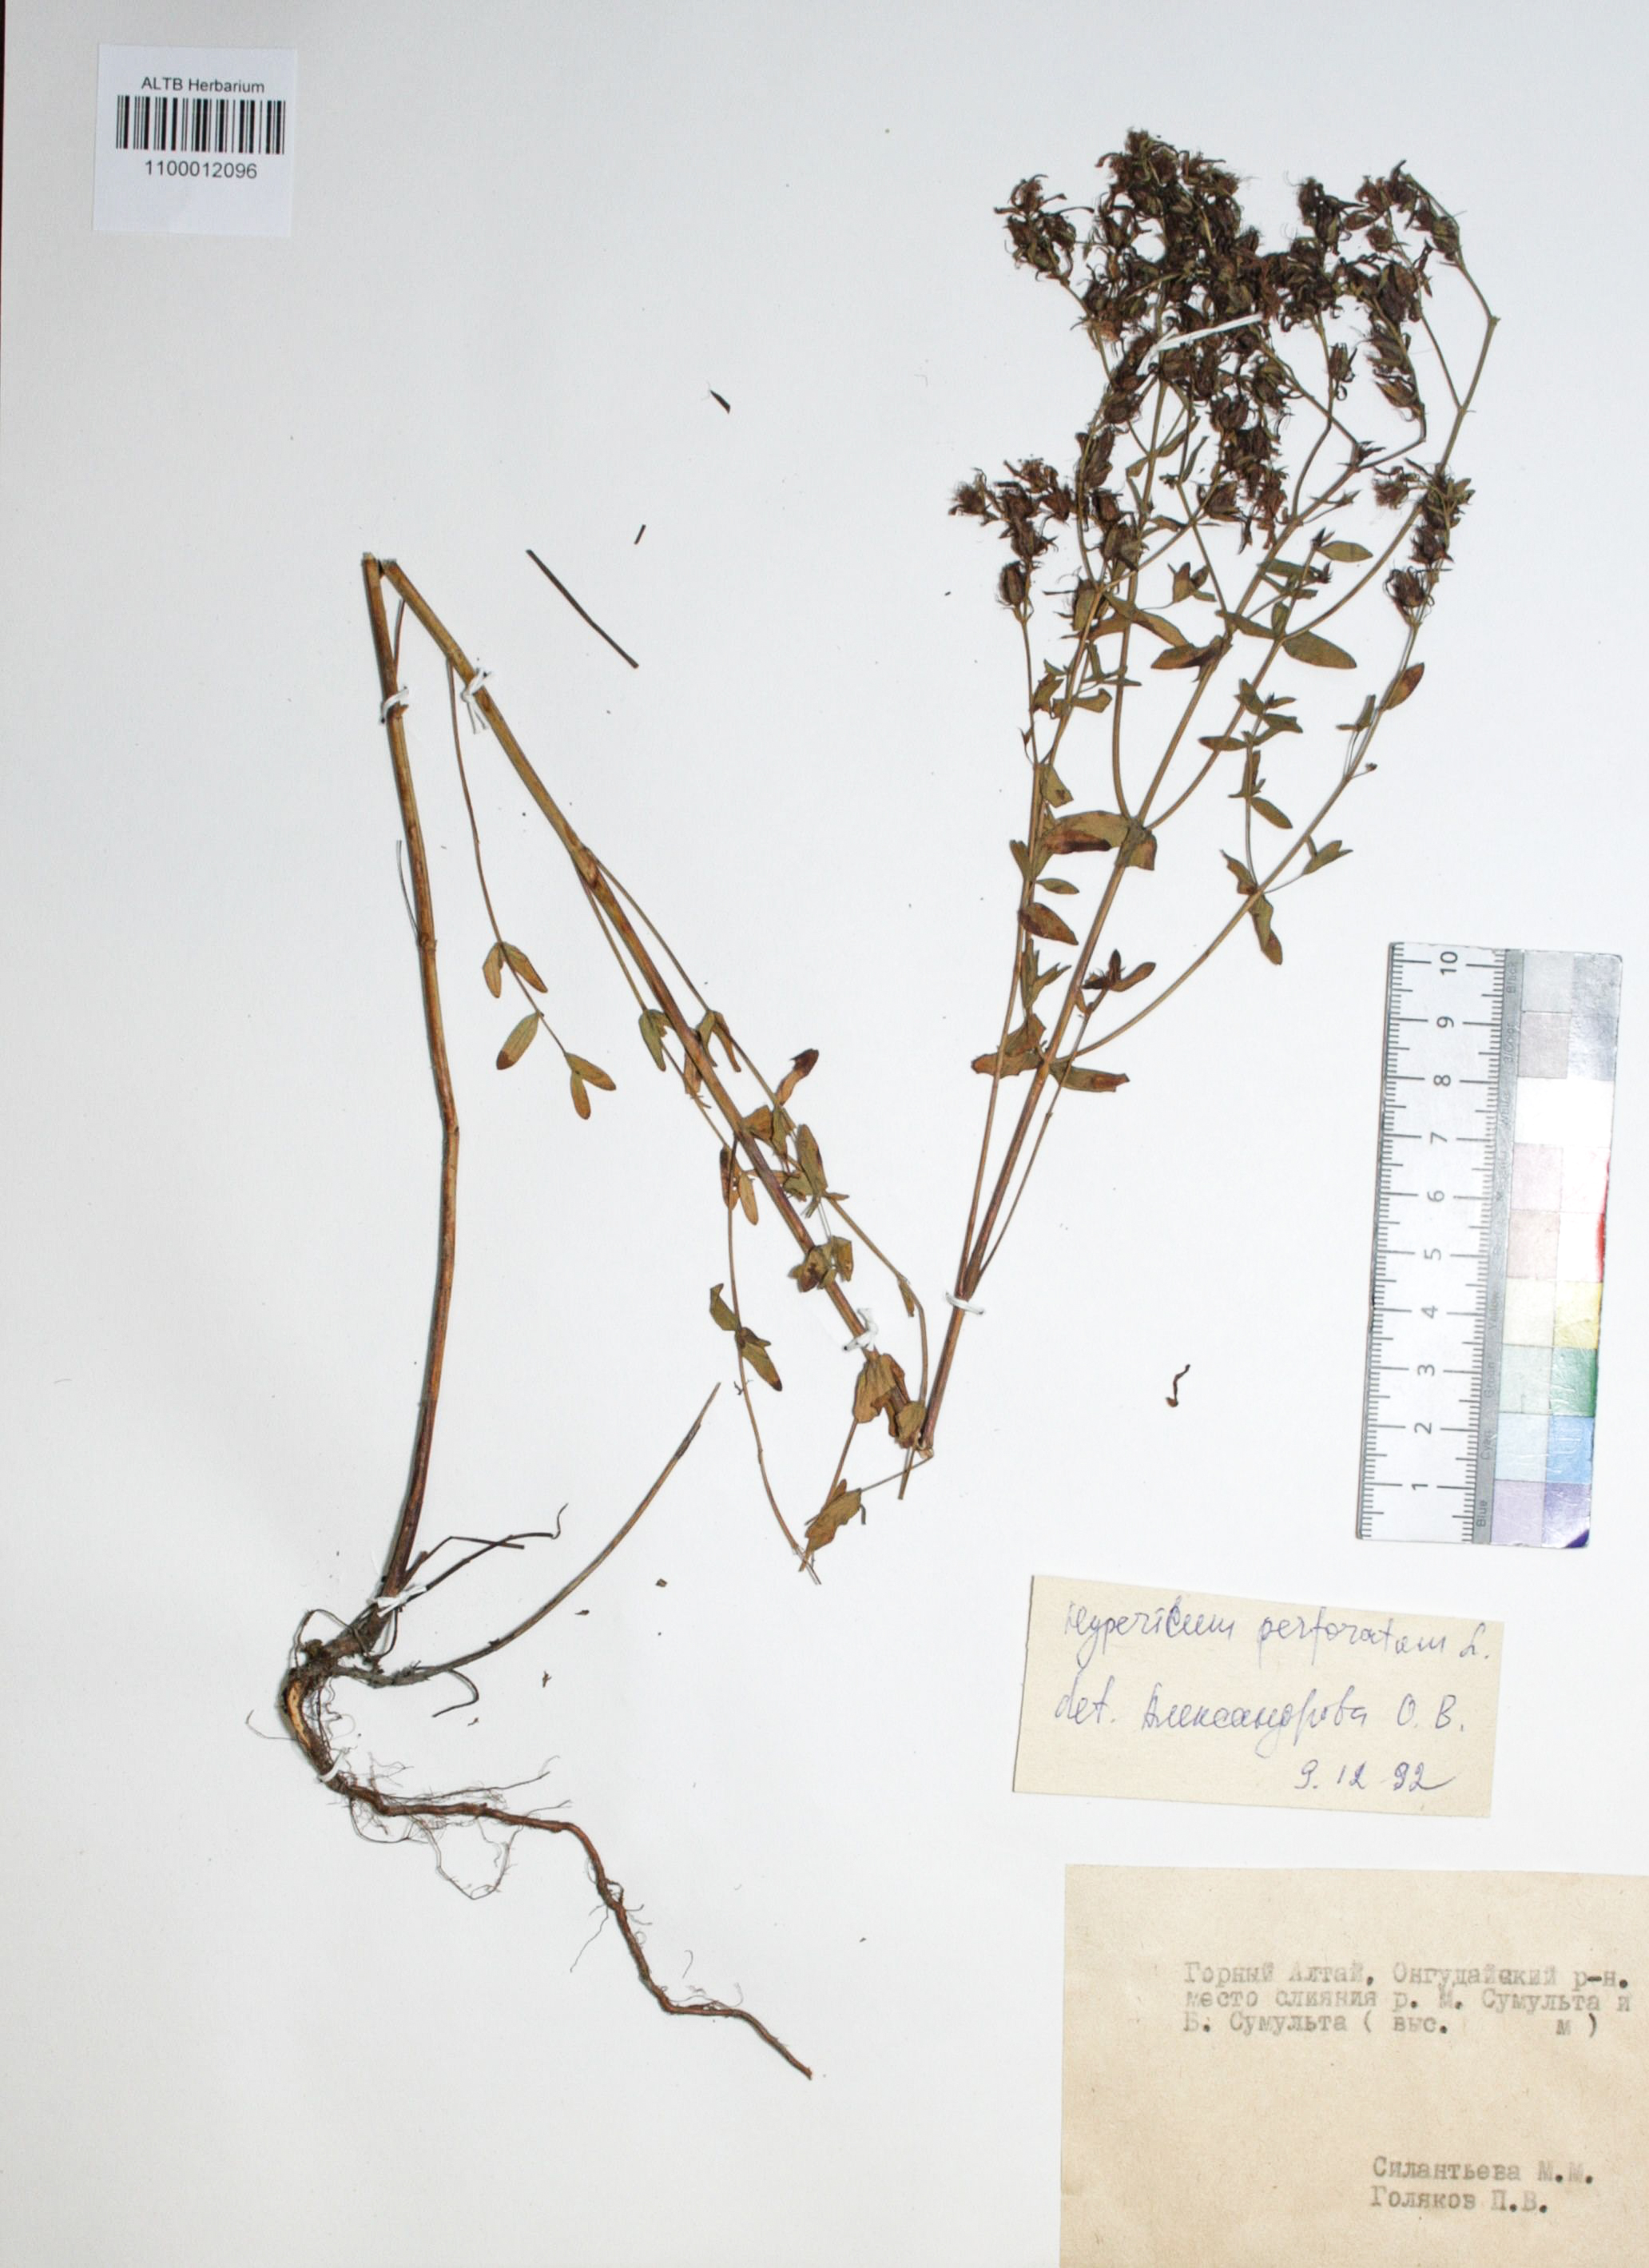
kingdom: Plantae
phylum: Tracheophyta
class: Magnoliopsida
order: Malpighiales
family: Hypericaceae
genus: Hypericum
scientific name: Hypericum perforatum
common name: Common st. johnswort
